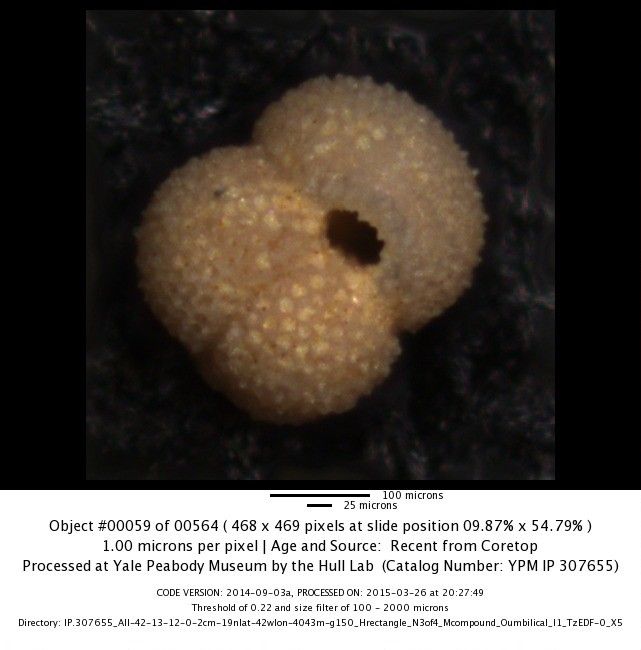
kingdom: Chromista
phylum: Foraminifera
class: Globothalamea
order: Rotaliida
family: Globigerinidae
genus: Globigerinoides
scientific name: Globigerinoides ruber
